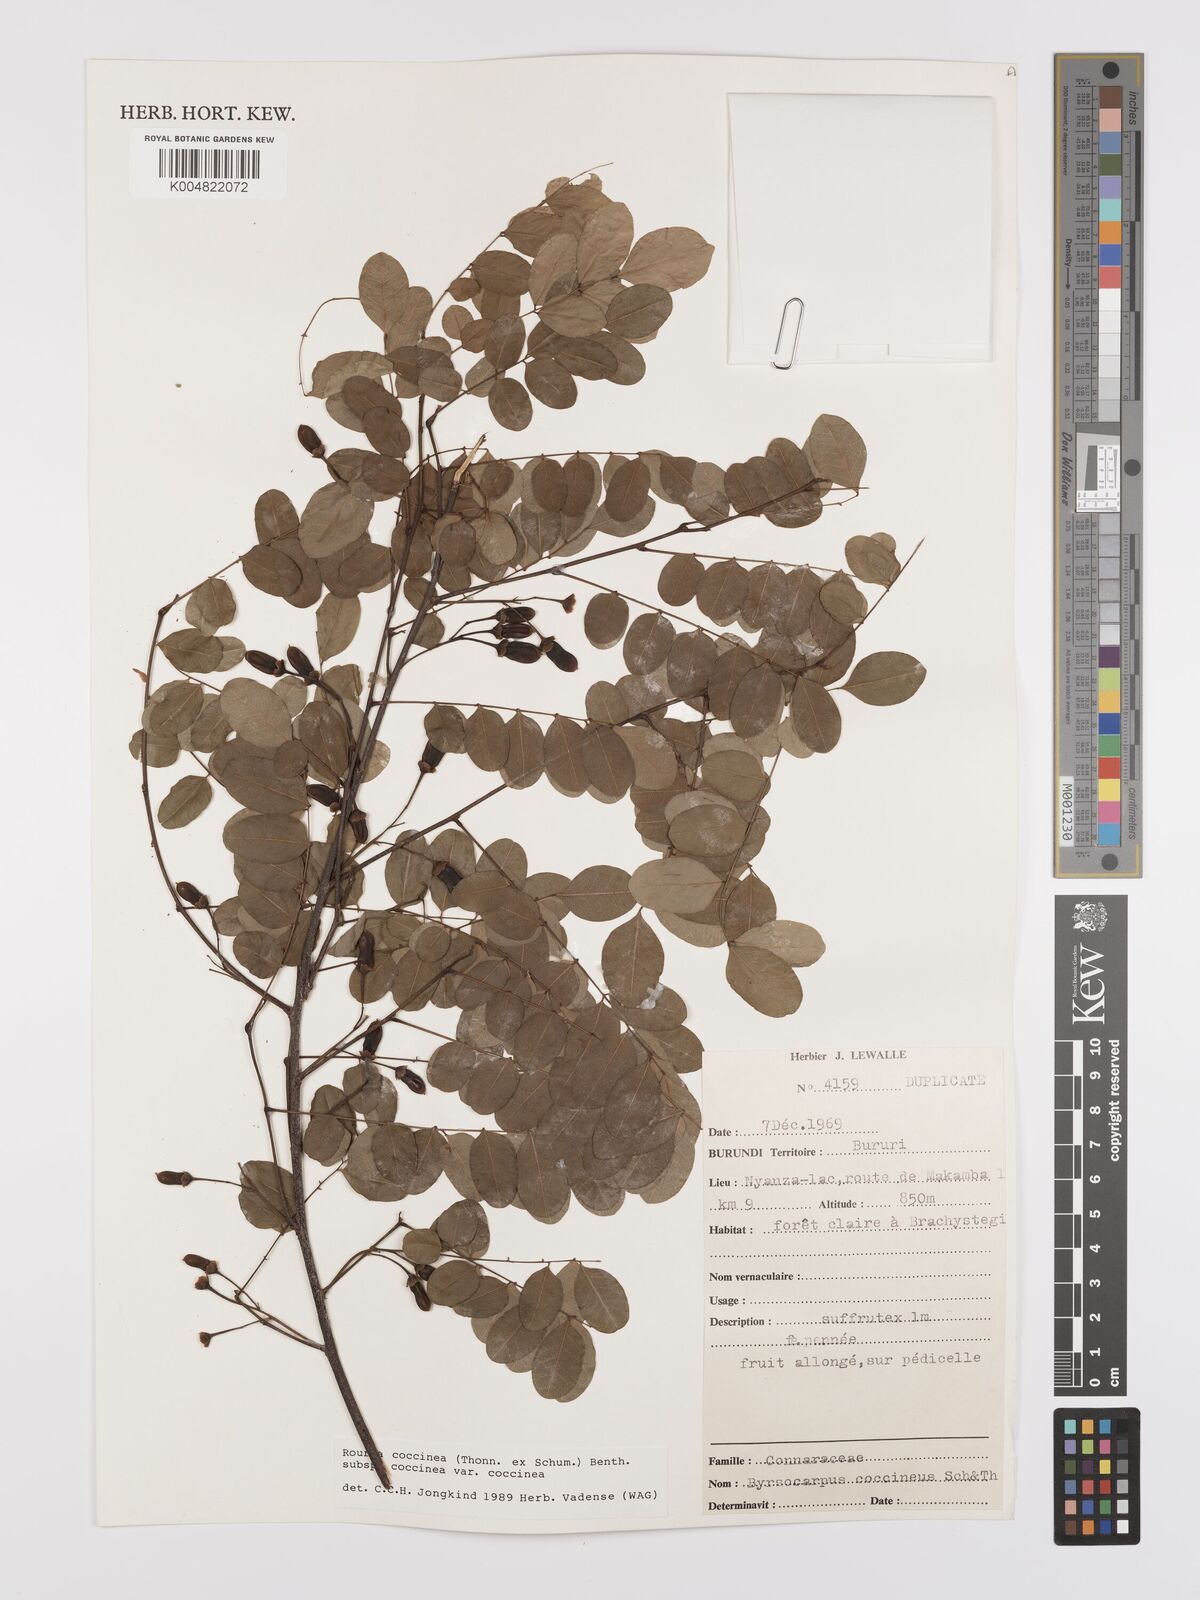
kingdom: Plantae
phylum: Tracheophyta
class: Magnoliopsida
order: Oxalidales
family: Connaraceae
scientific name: Connaraceae
